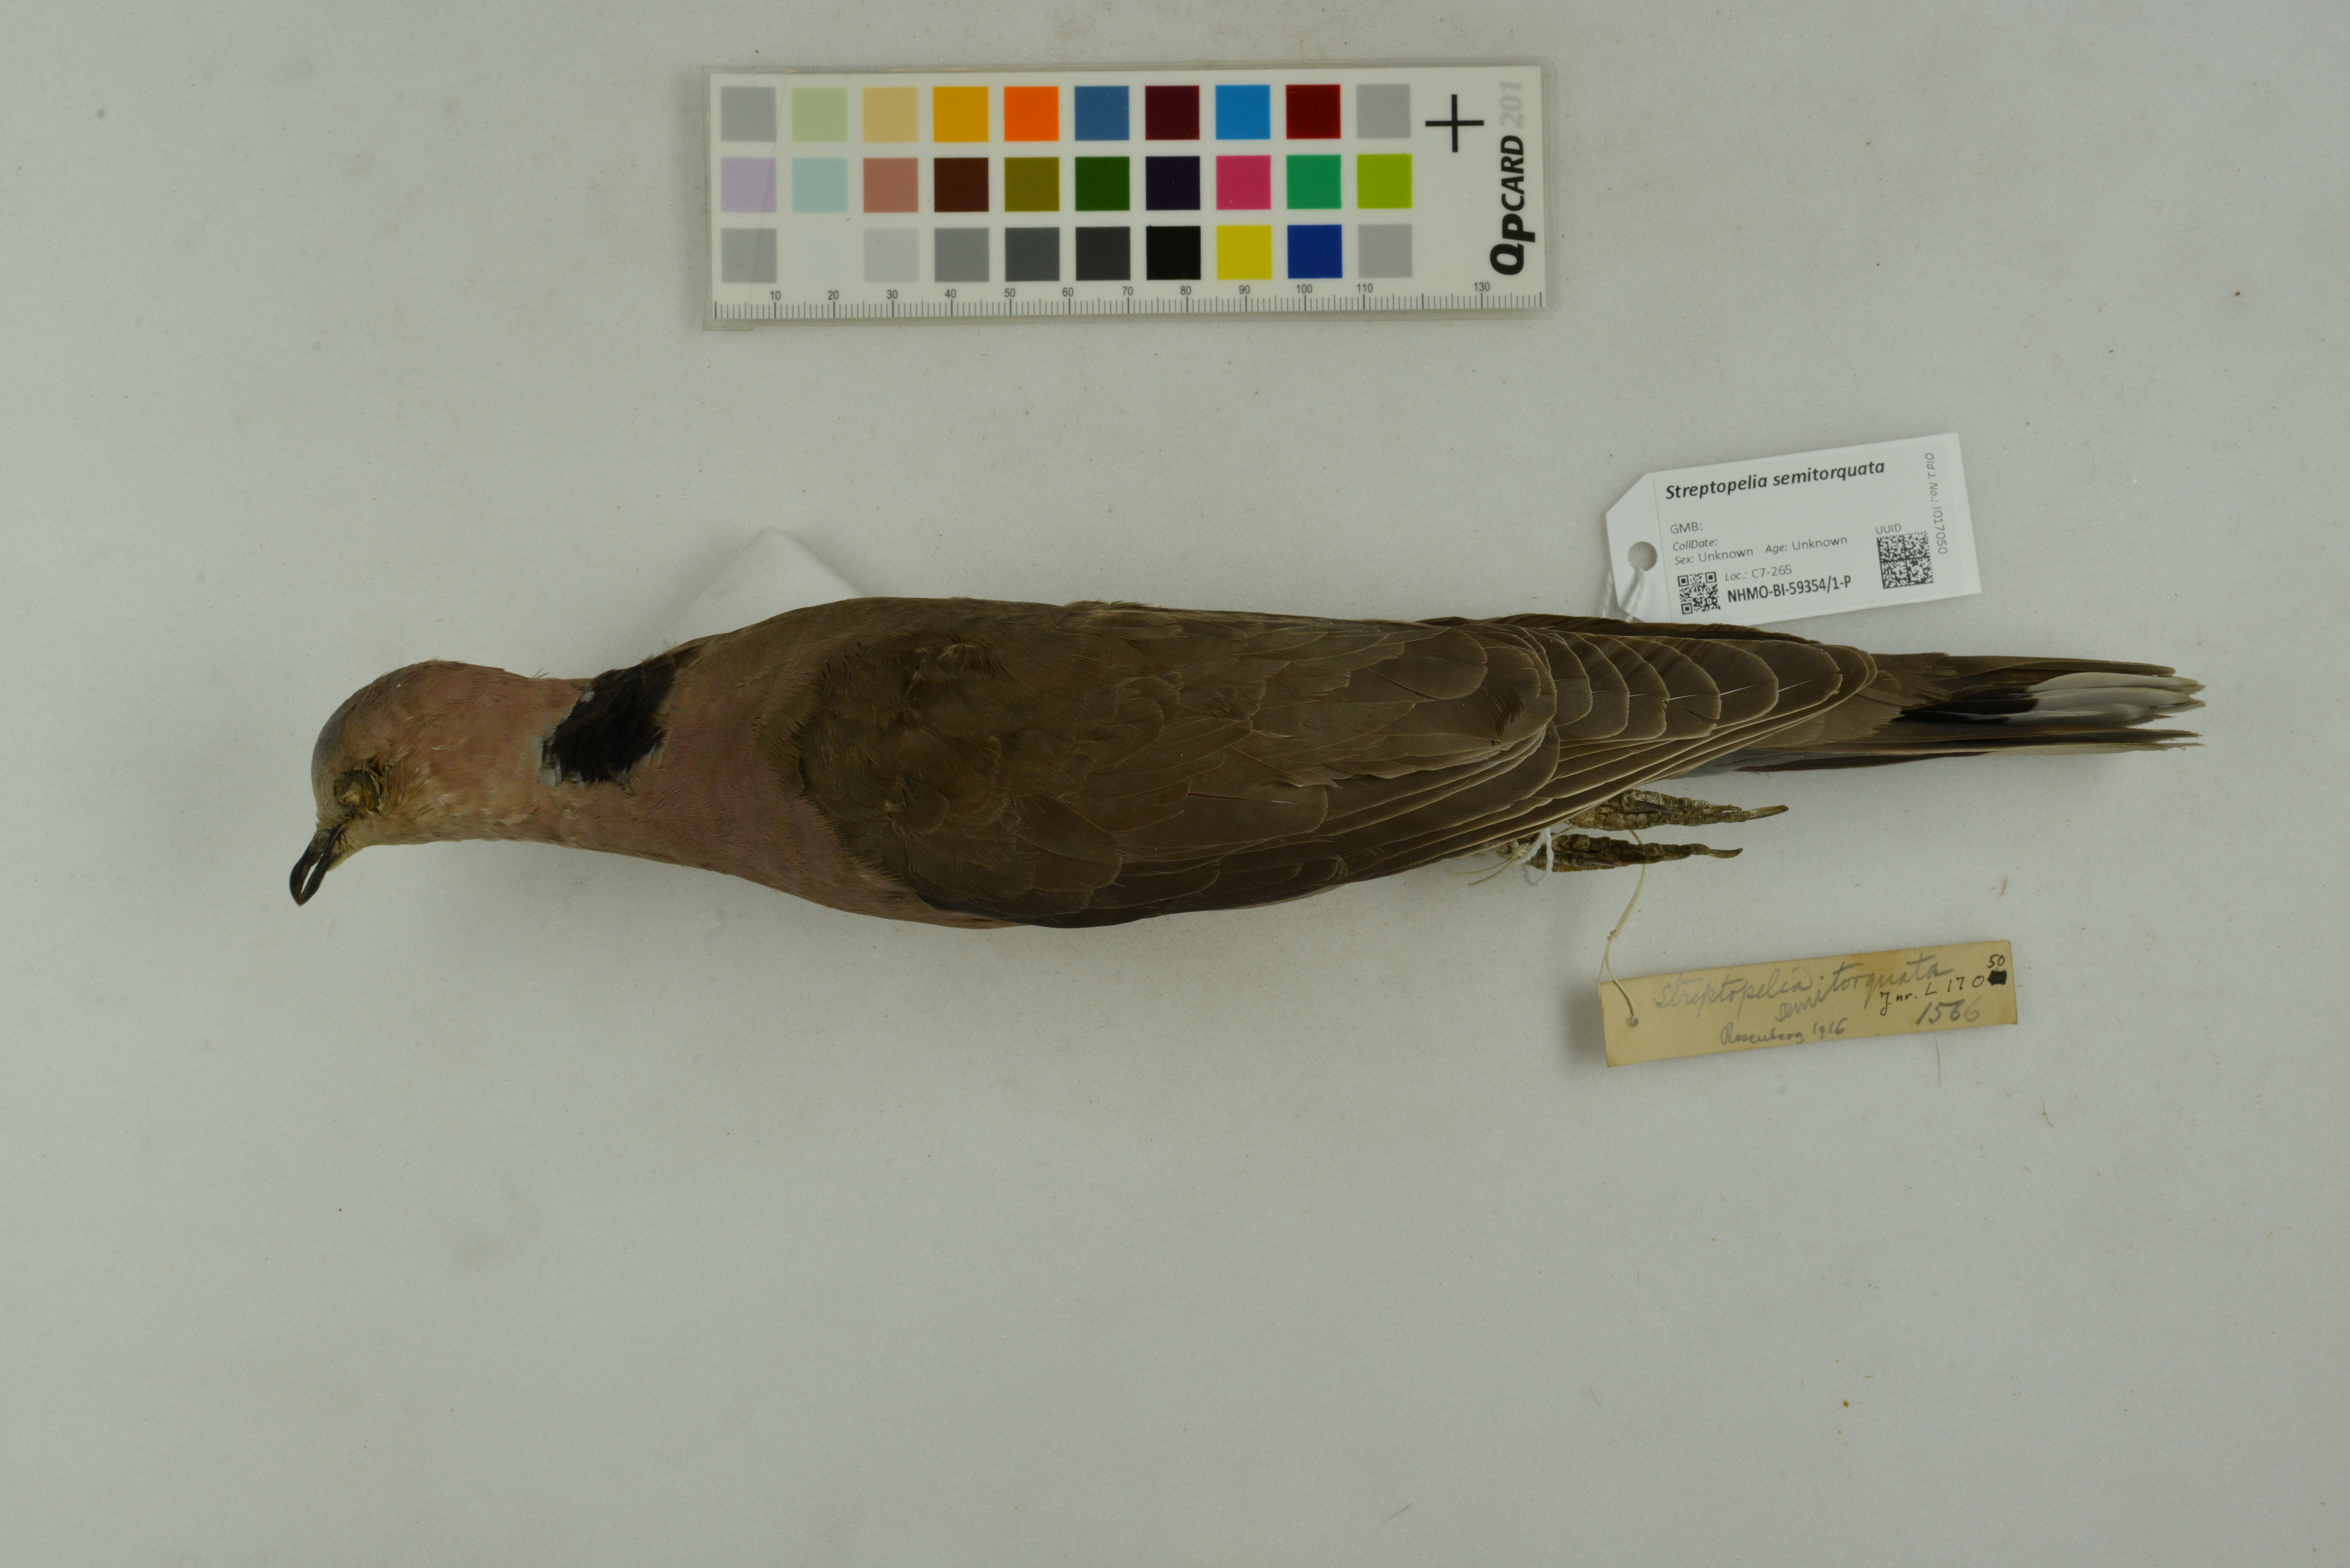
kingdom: Animalia
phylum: Chordata
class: Aves
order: Columbiformes
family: Columbidae
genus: Streptopelia
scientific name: Streptopelia semitorquata
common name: Red-eyed dove
